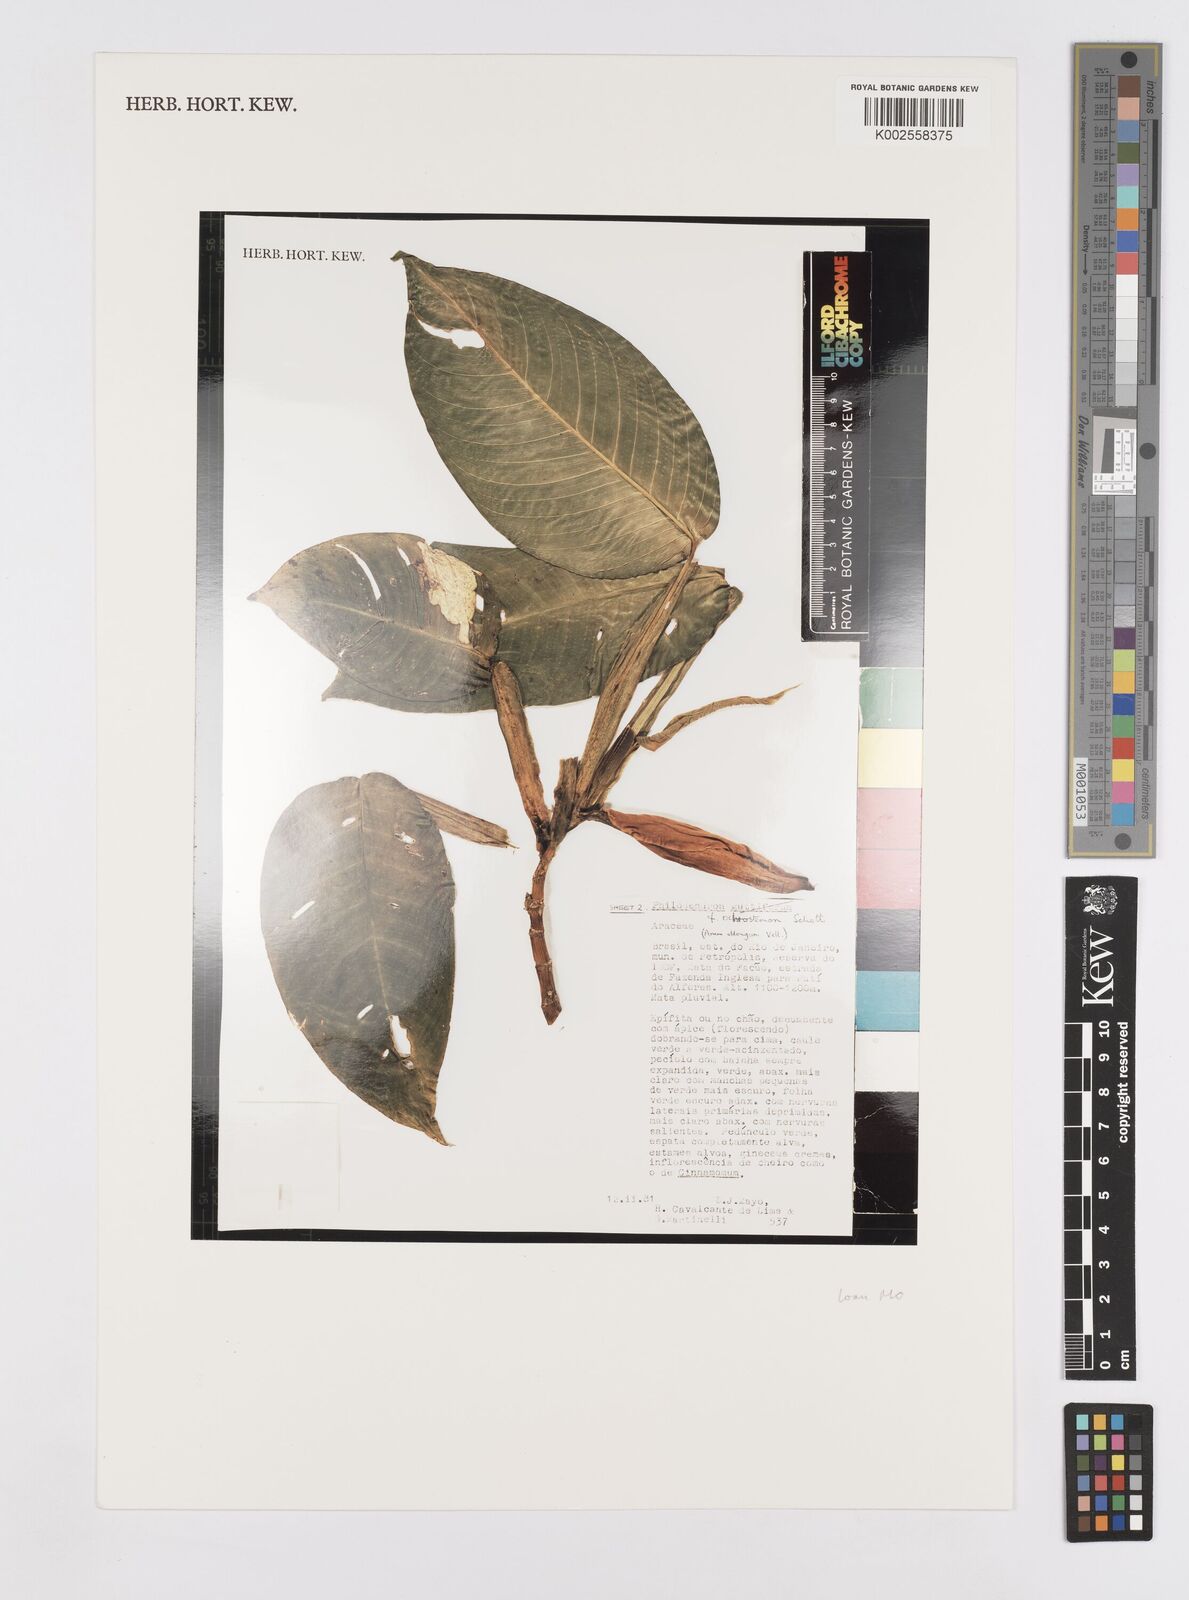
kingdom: Plantae
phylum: Tracheophyta
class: Liliopsida
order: Alismatales
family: Araceae
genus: Philodendron
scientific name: Philodendron ochrostemon
